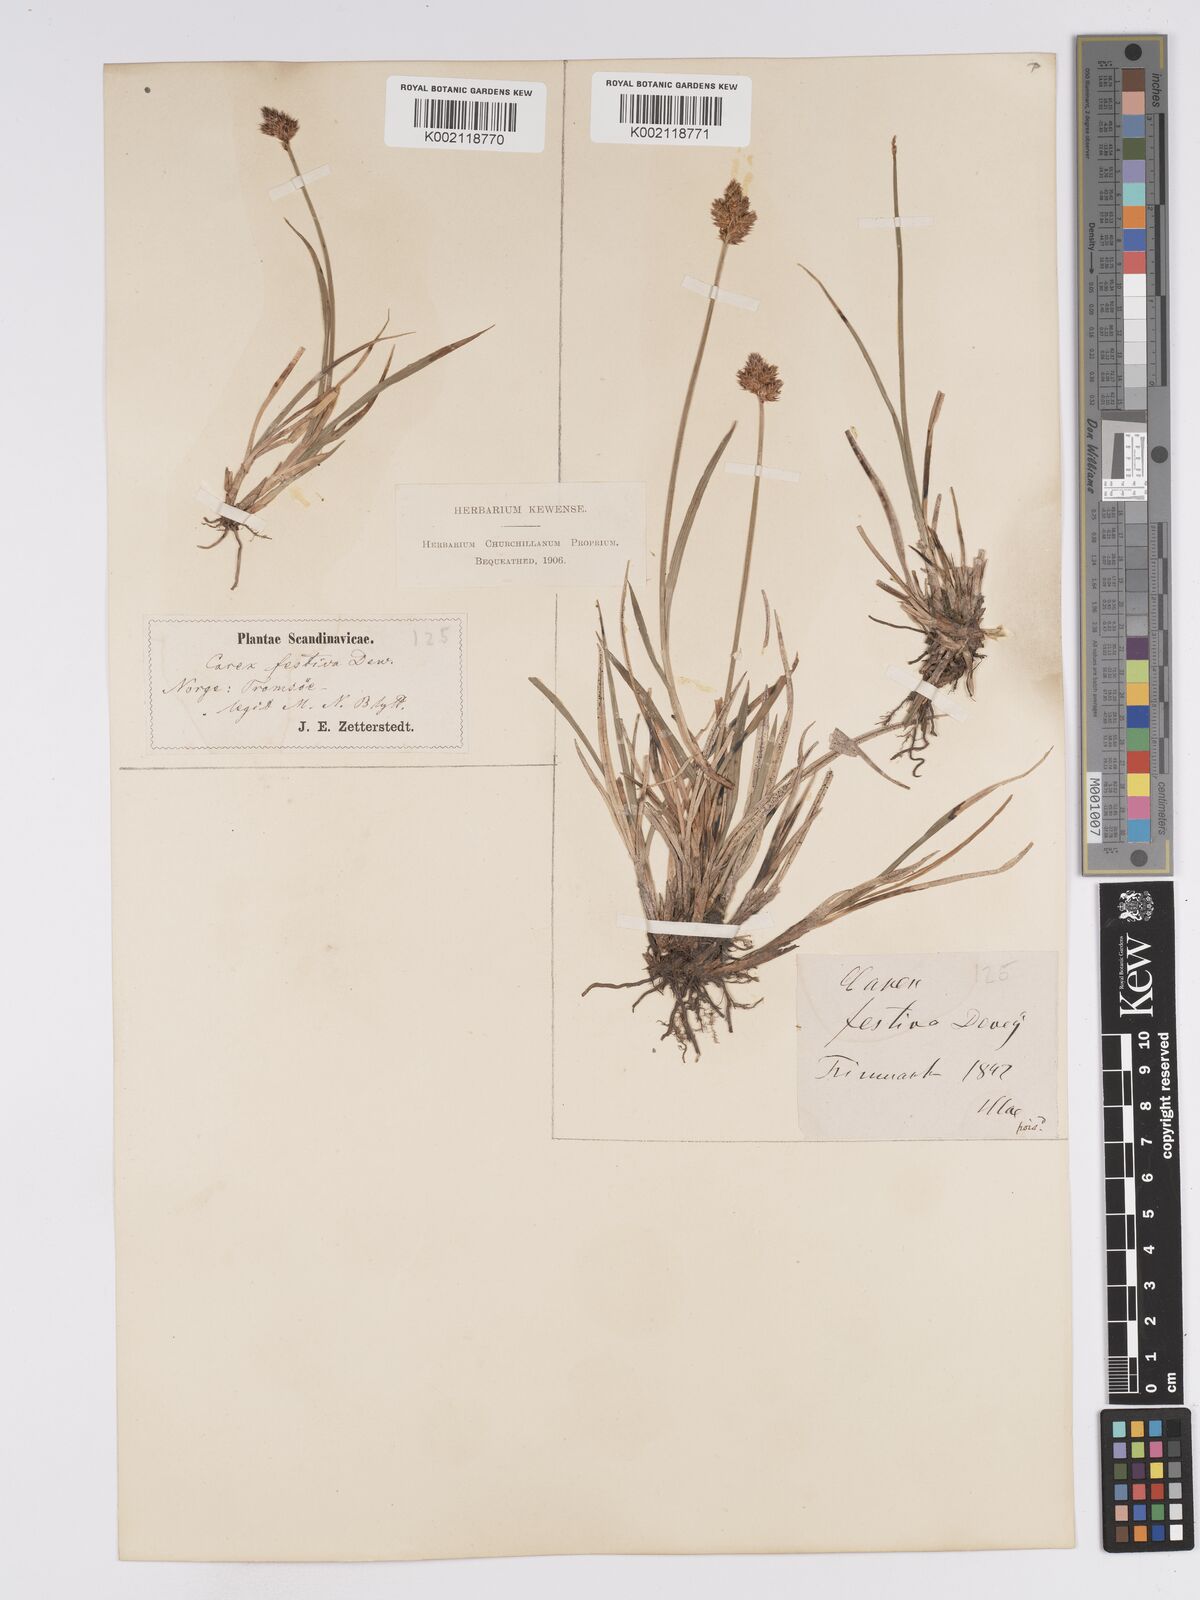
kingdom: Plantae
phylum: Tracheophyta
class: Liliopsida
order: Poales
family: Cyperaceae
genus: Carex
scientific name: Carex macloviana
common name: Falkland island sedge
